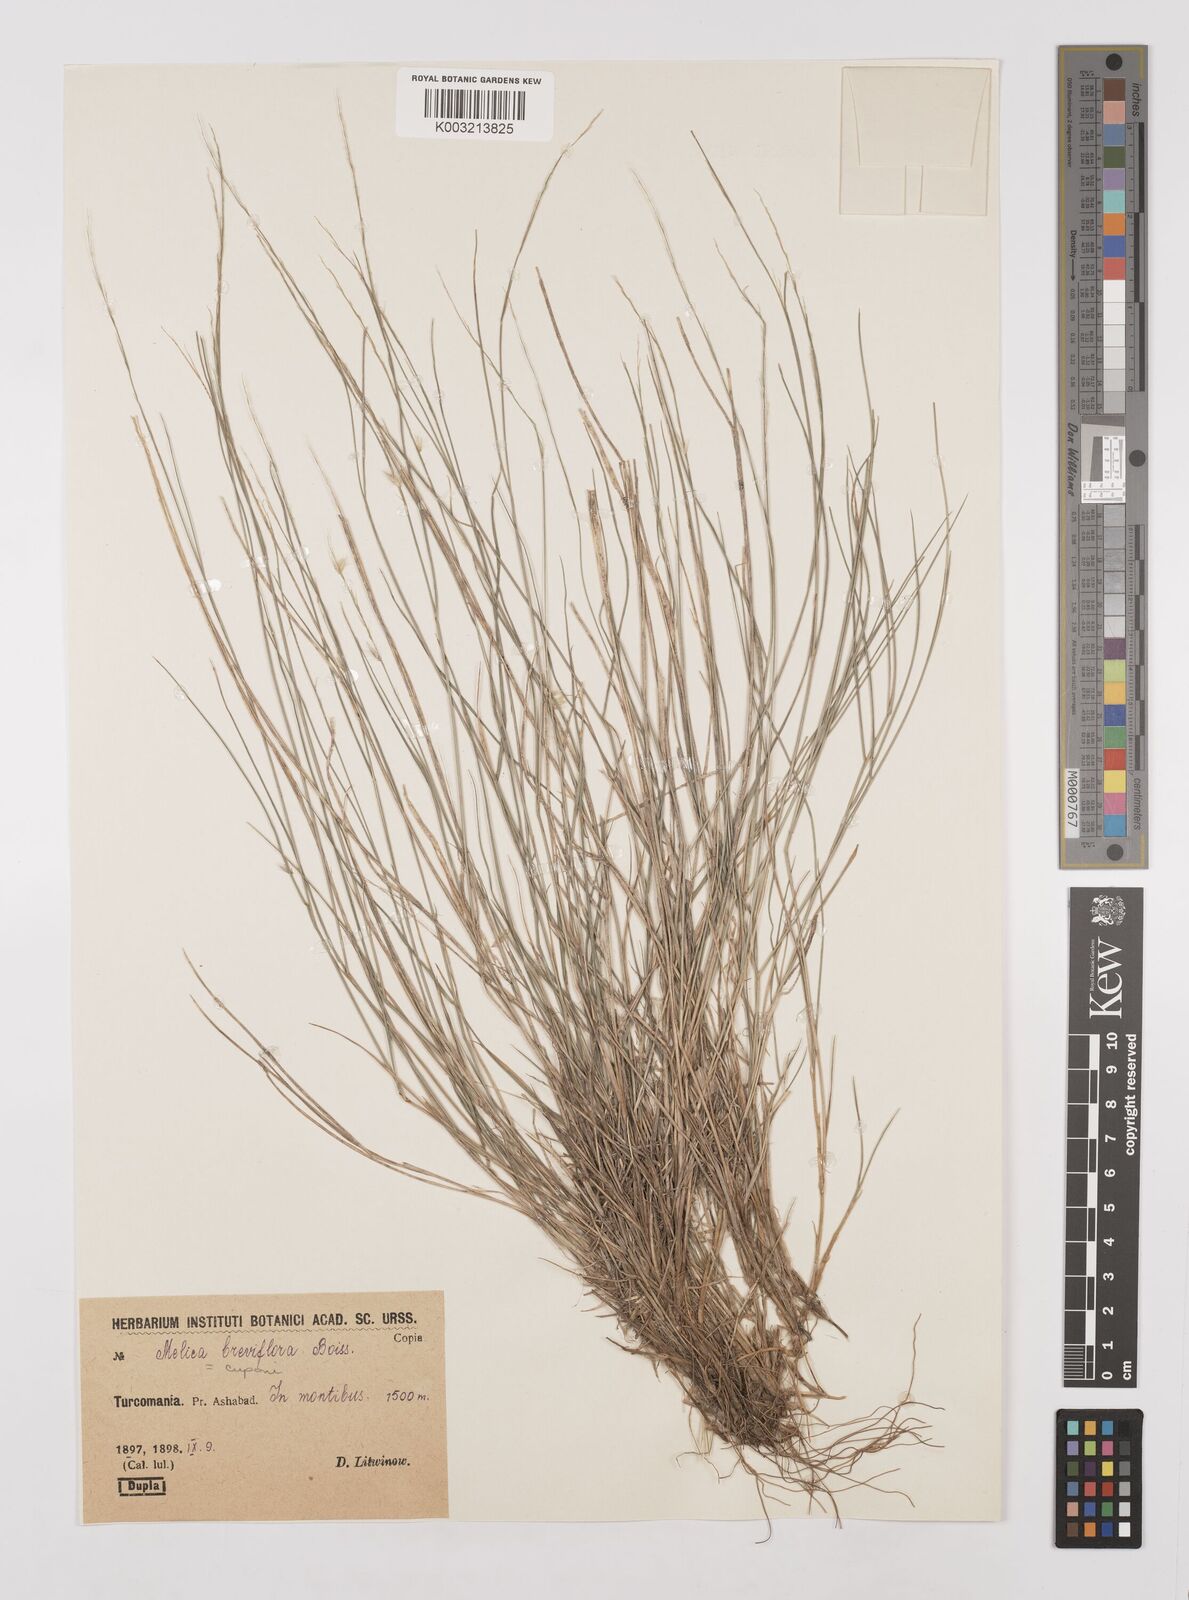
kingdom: Plantae
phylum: Tracheophyta
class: Liliopsida
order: Poales
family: Poaceae
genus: Melica
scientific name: Melica cupani
